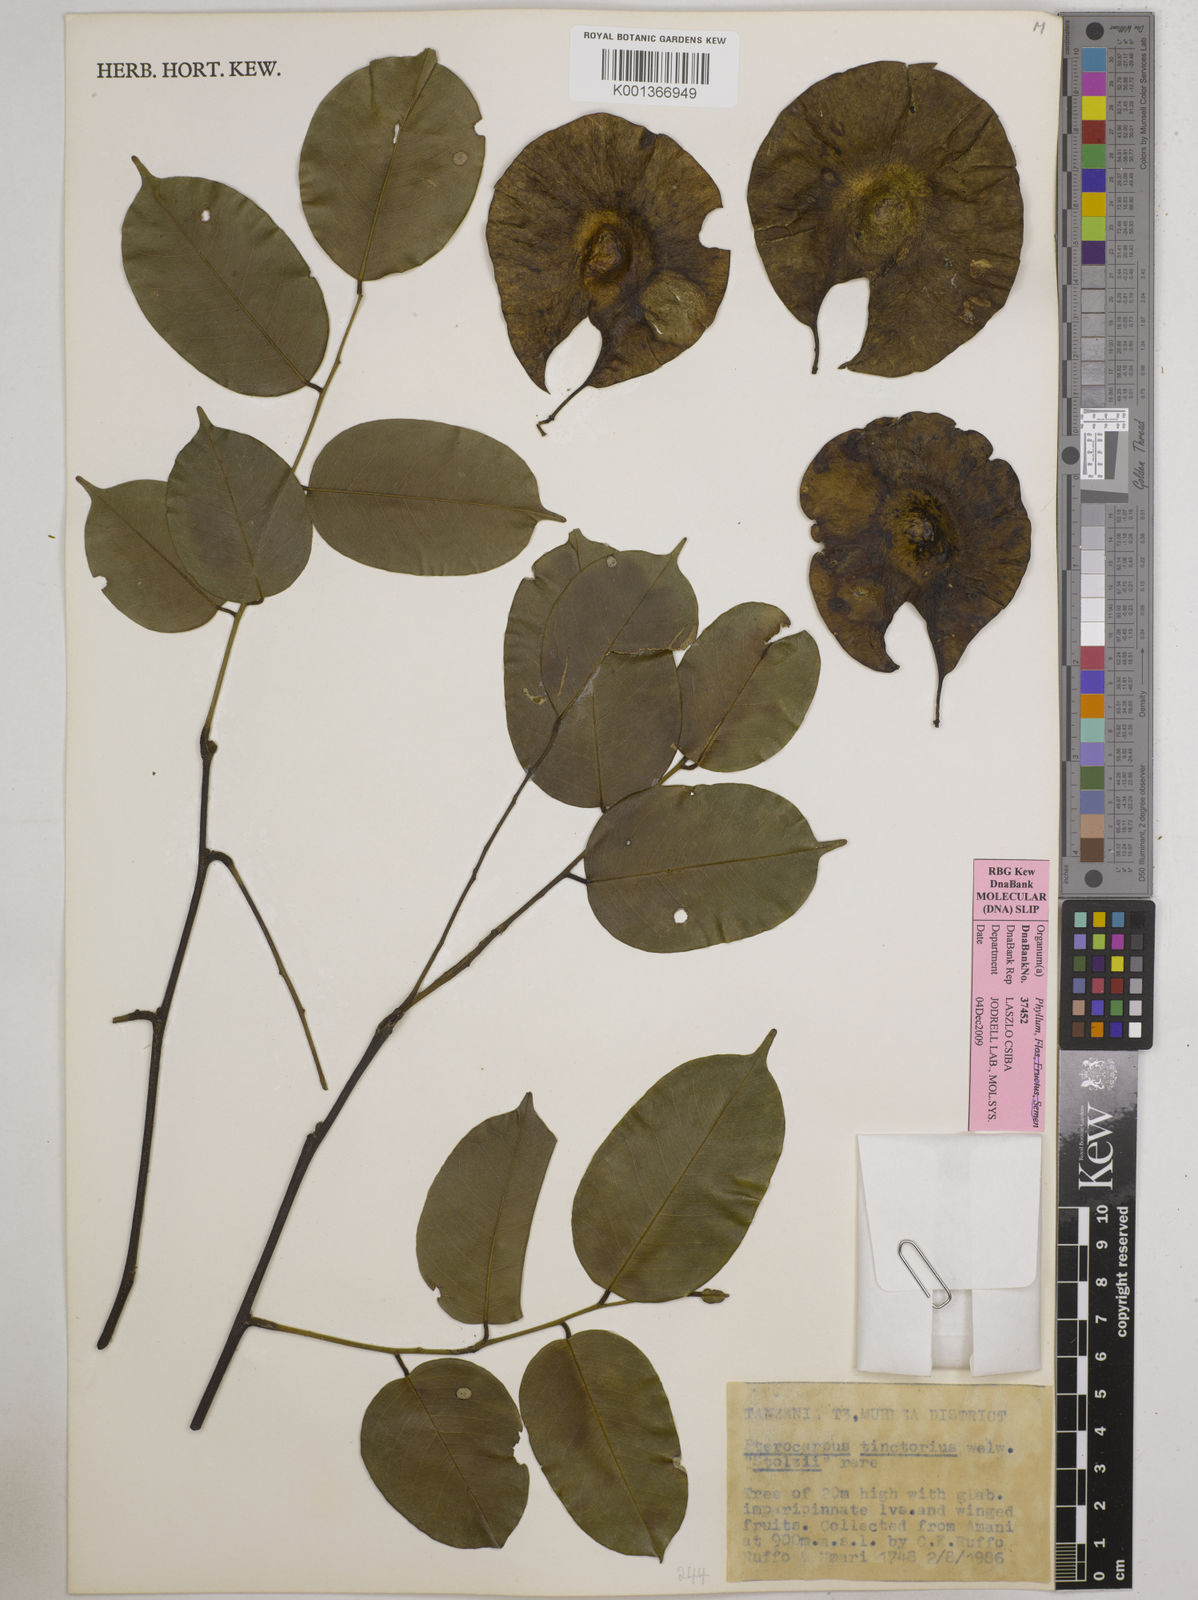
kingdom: Plantae
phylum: Tracheophyta
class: Magnoliopsida
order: Fabales
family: Fabaceae
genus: Pterocarpus
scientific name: Pterocarpus tinctorius
